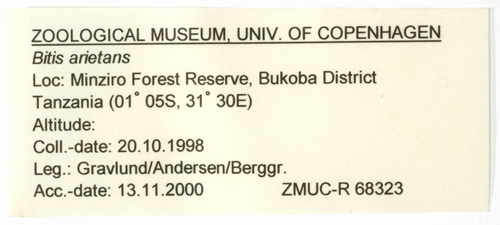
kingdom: Animalia
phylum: Chordata
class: Squamata
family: Viperidae
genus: Bitis
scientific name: Bitis arietans
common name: Puff adder
